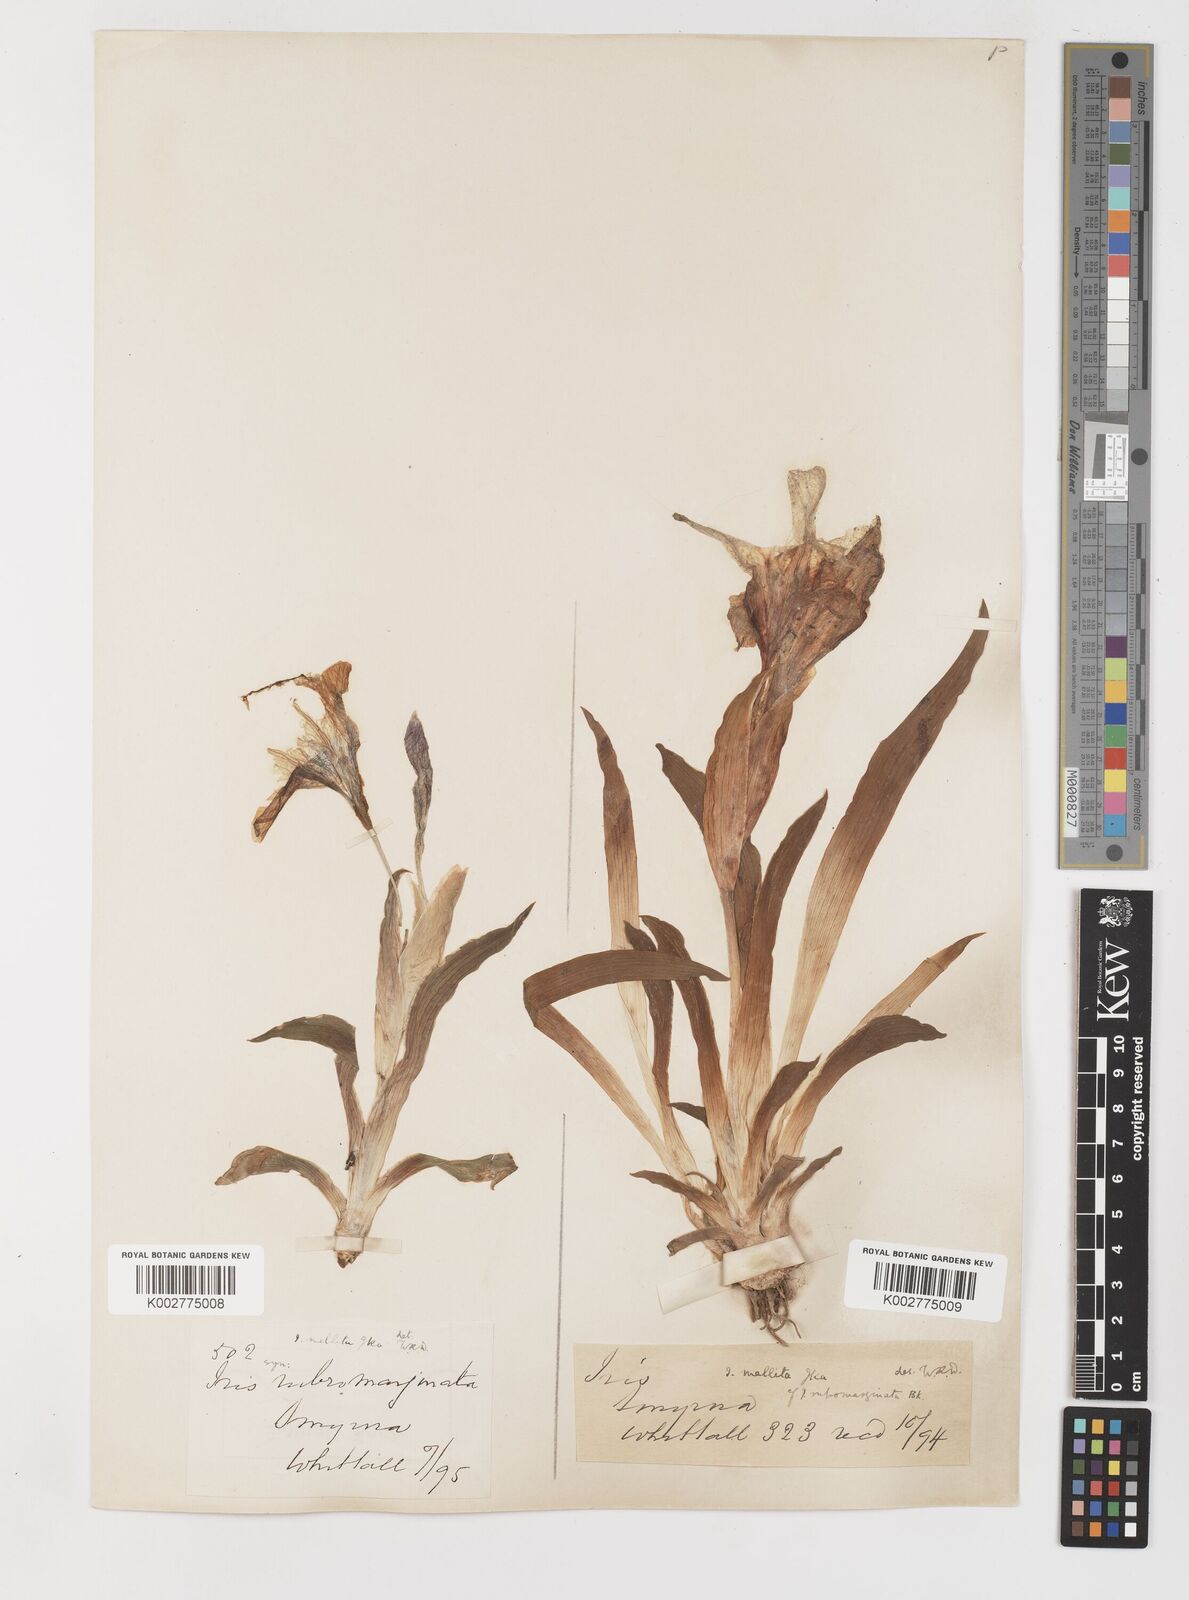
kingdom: Plantae
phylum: Tracheophyta
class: Liliopsida
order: Asparagales
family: Iridaceae
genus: Iris
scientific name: Iris suaveolens
